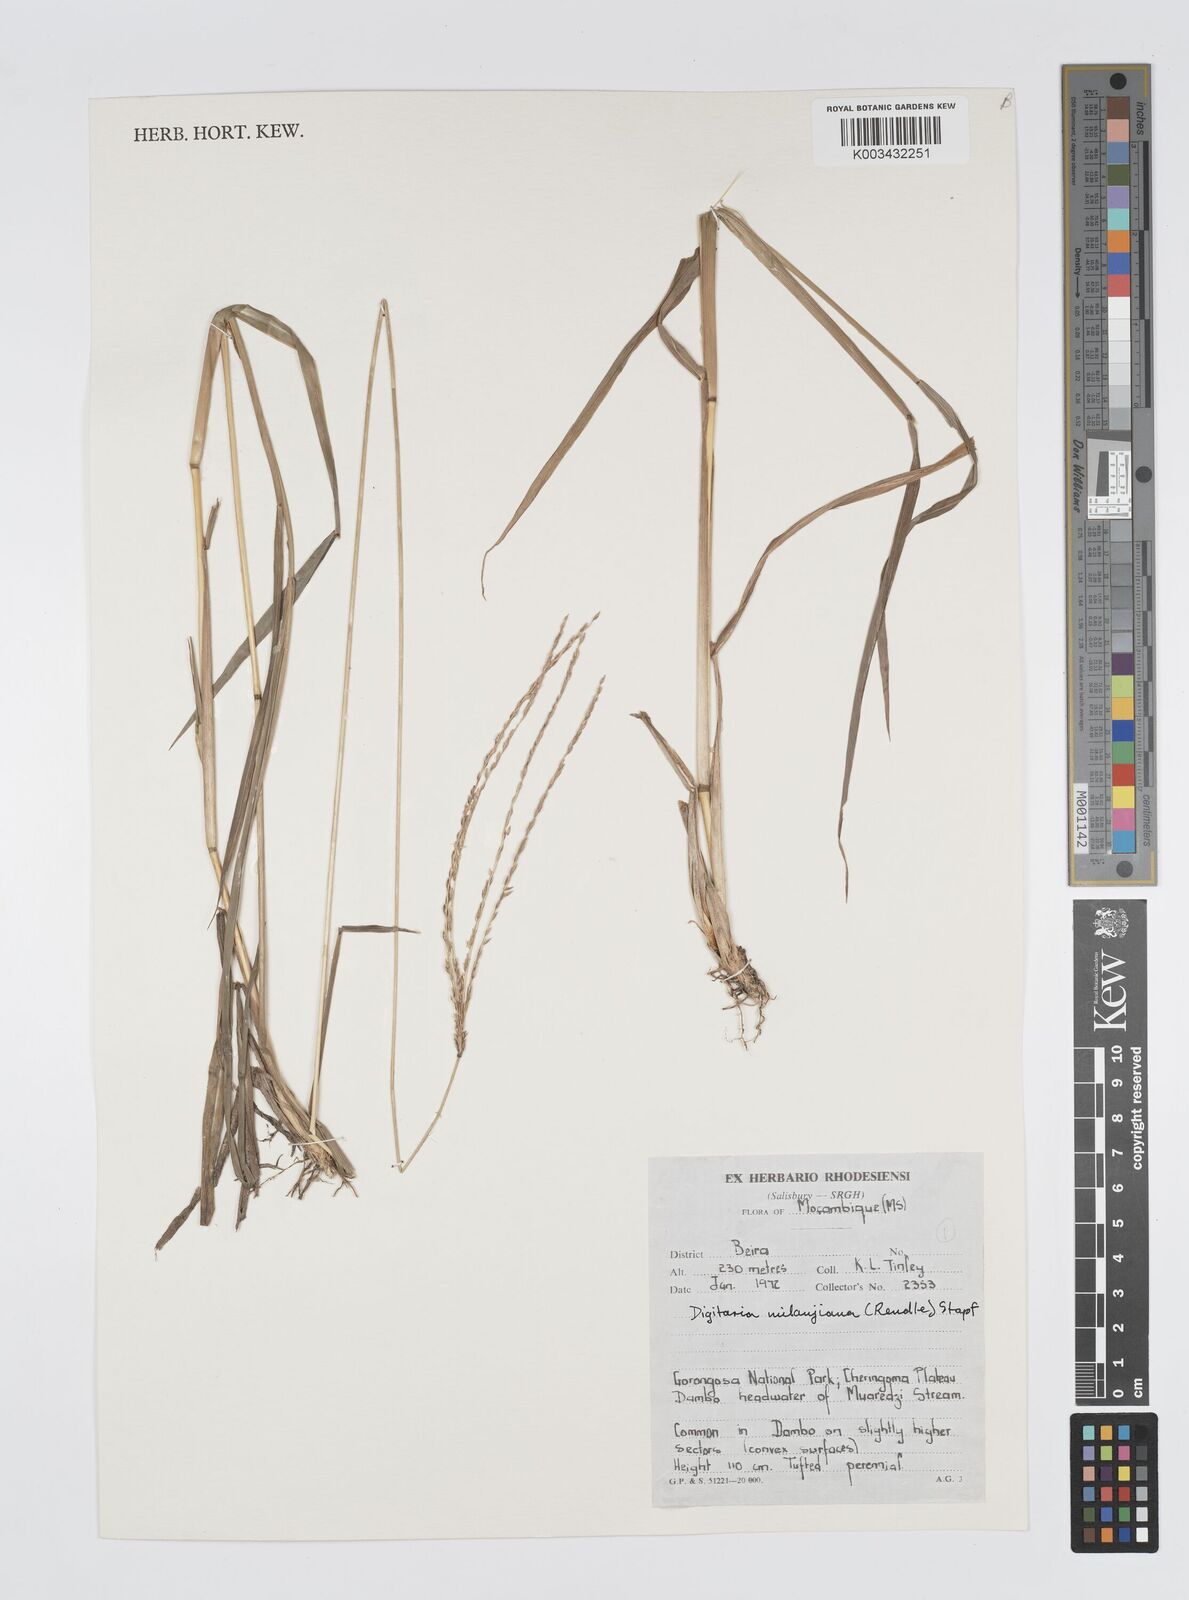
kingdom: Plantae
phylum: Tracheophyta
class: Liliopsida
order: Poales
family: Poaceae
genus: Digitaria
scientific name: Digitaria milanjiana
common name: Madagascar crabgrass
